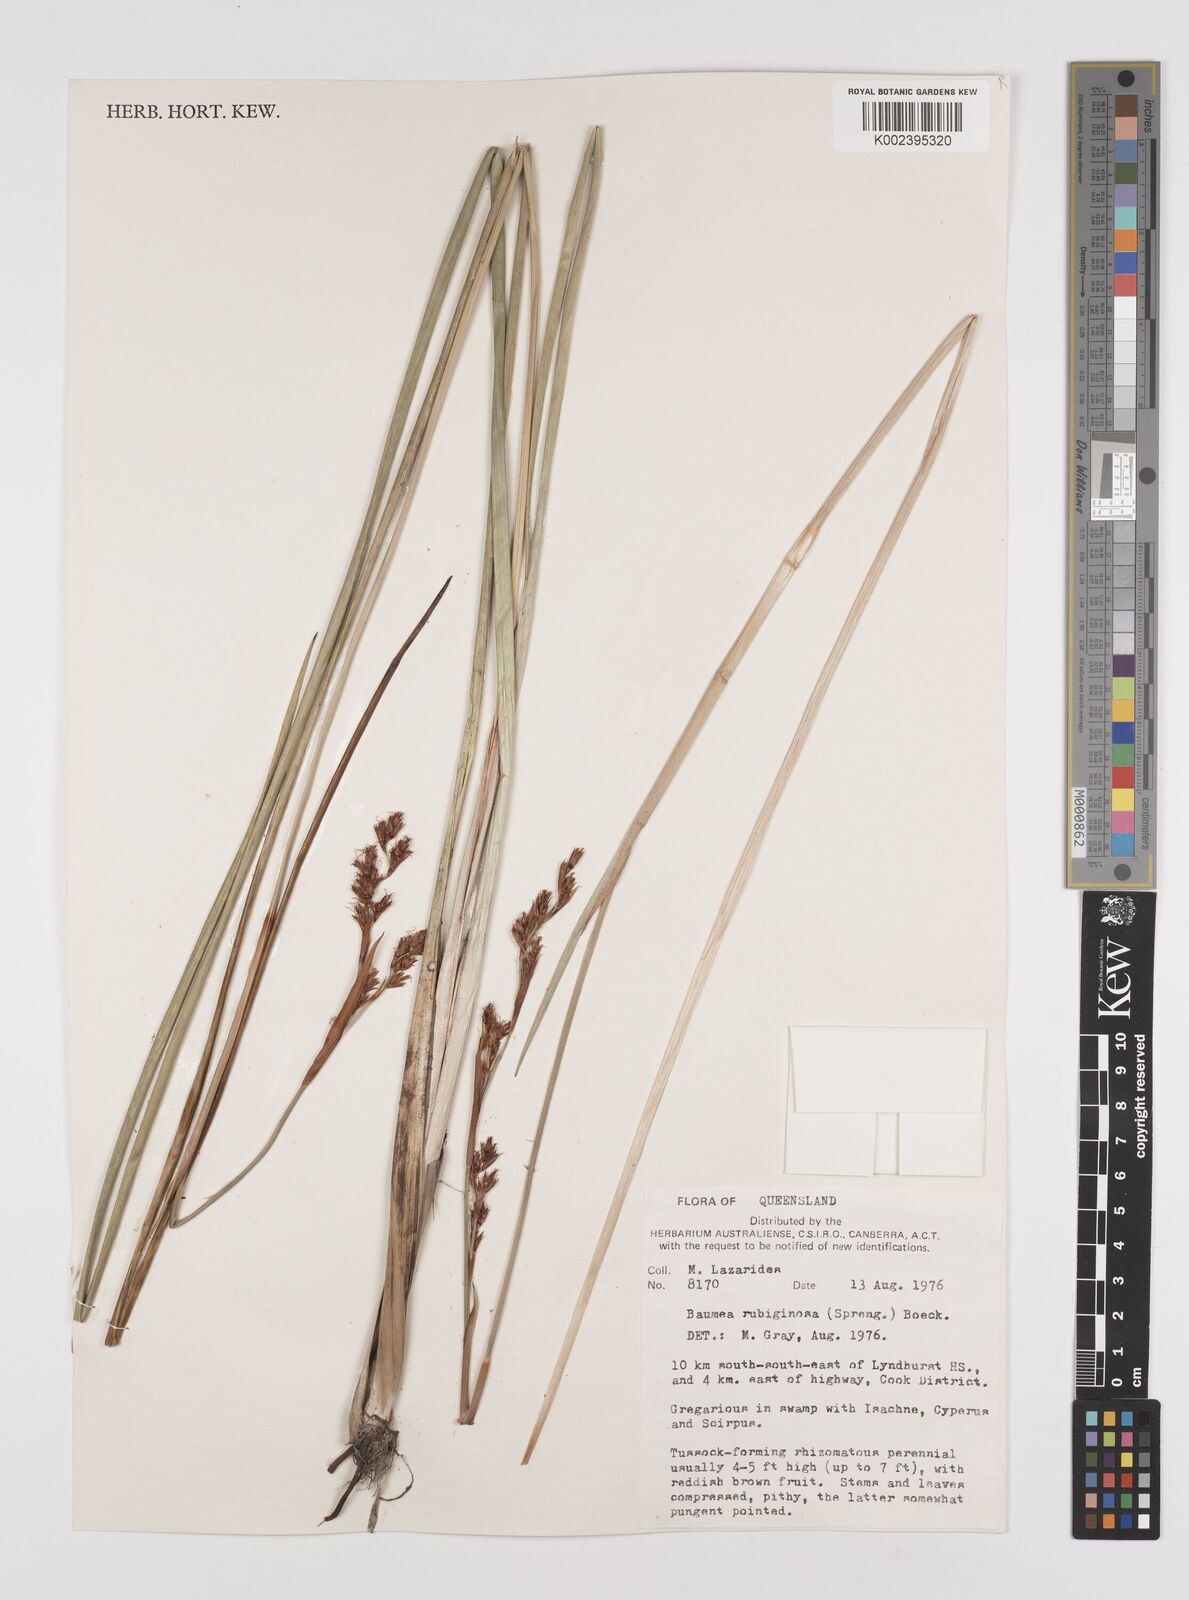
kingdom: Plantae
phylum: Tracheophyta
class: Liliopsida
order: Poales
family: Cyperaceae
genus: Machaerina
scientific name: Machaerina rubiginosa
